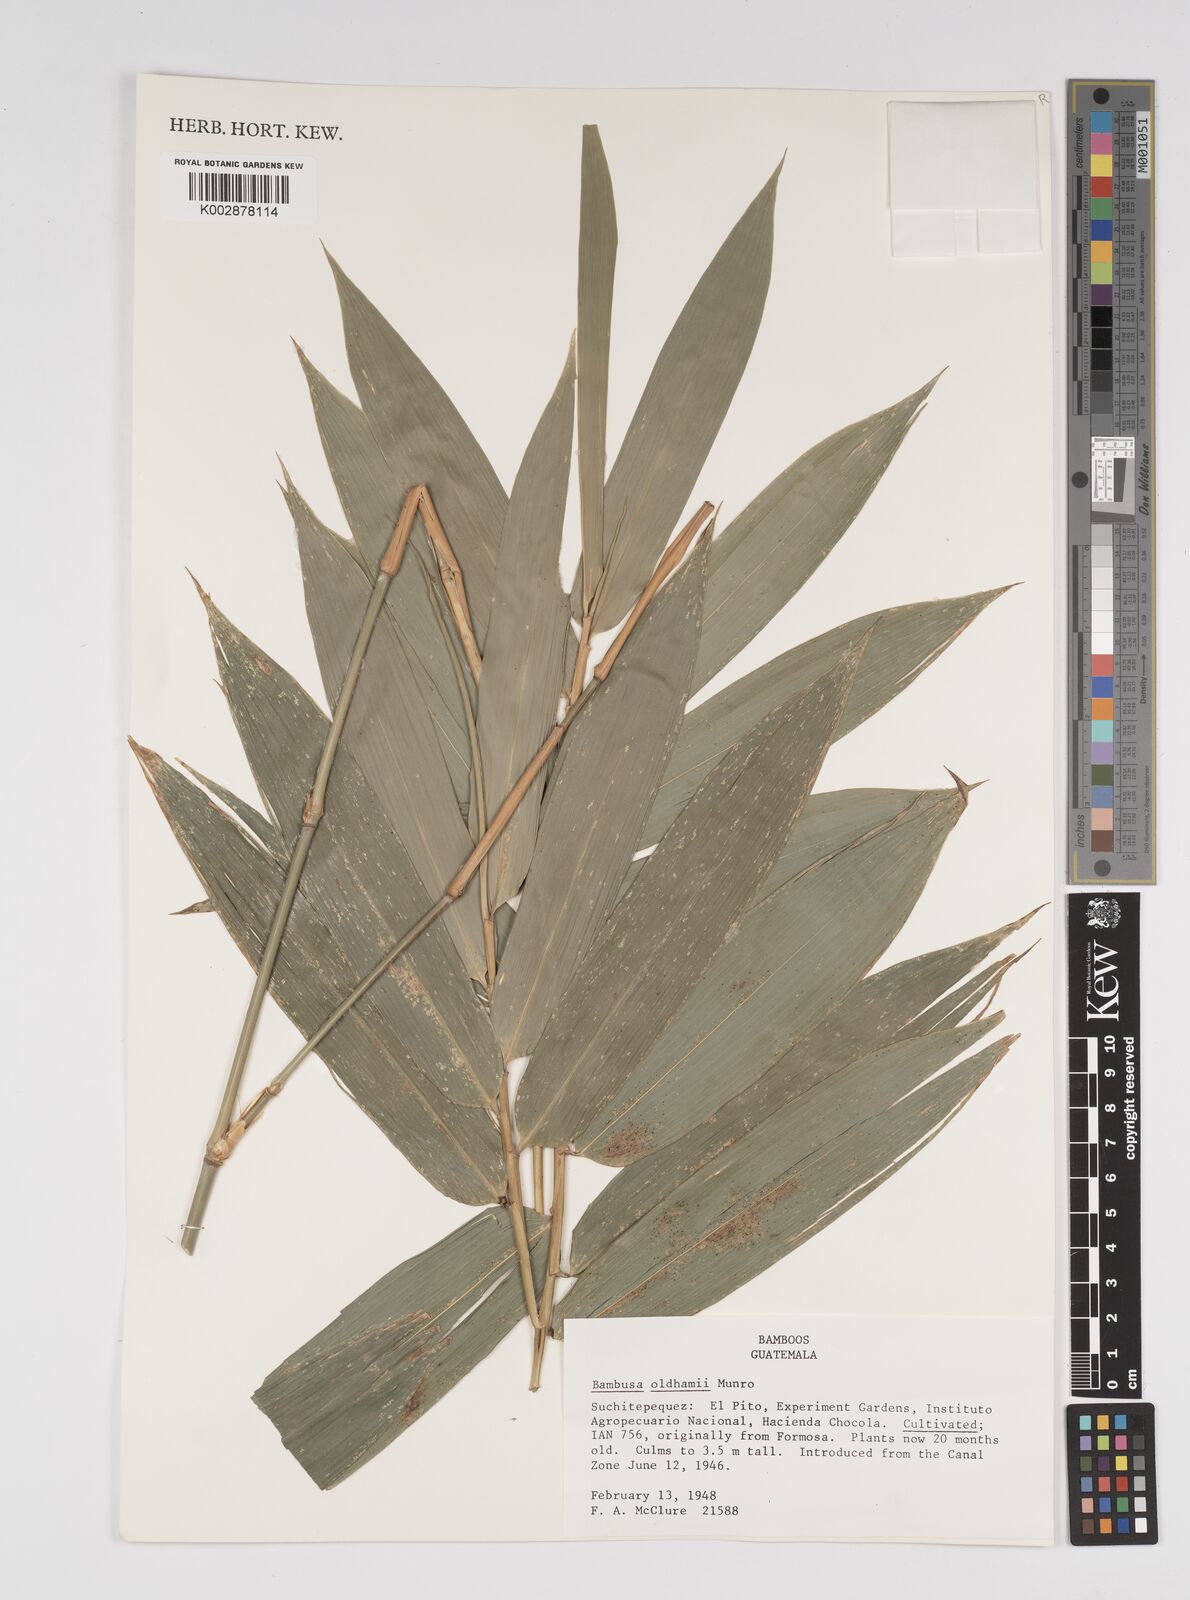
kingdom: Plantae
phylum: Tracheophyta
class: Liliopsida
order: Poales
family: Poaceae
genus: Bambusa
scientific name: Bambusa oldhamii
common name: Giant timber bamboo
